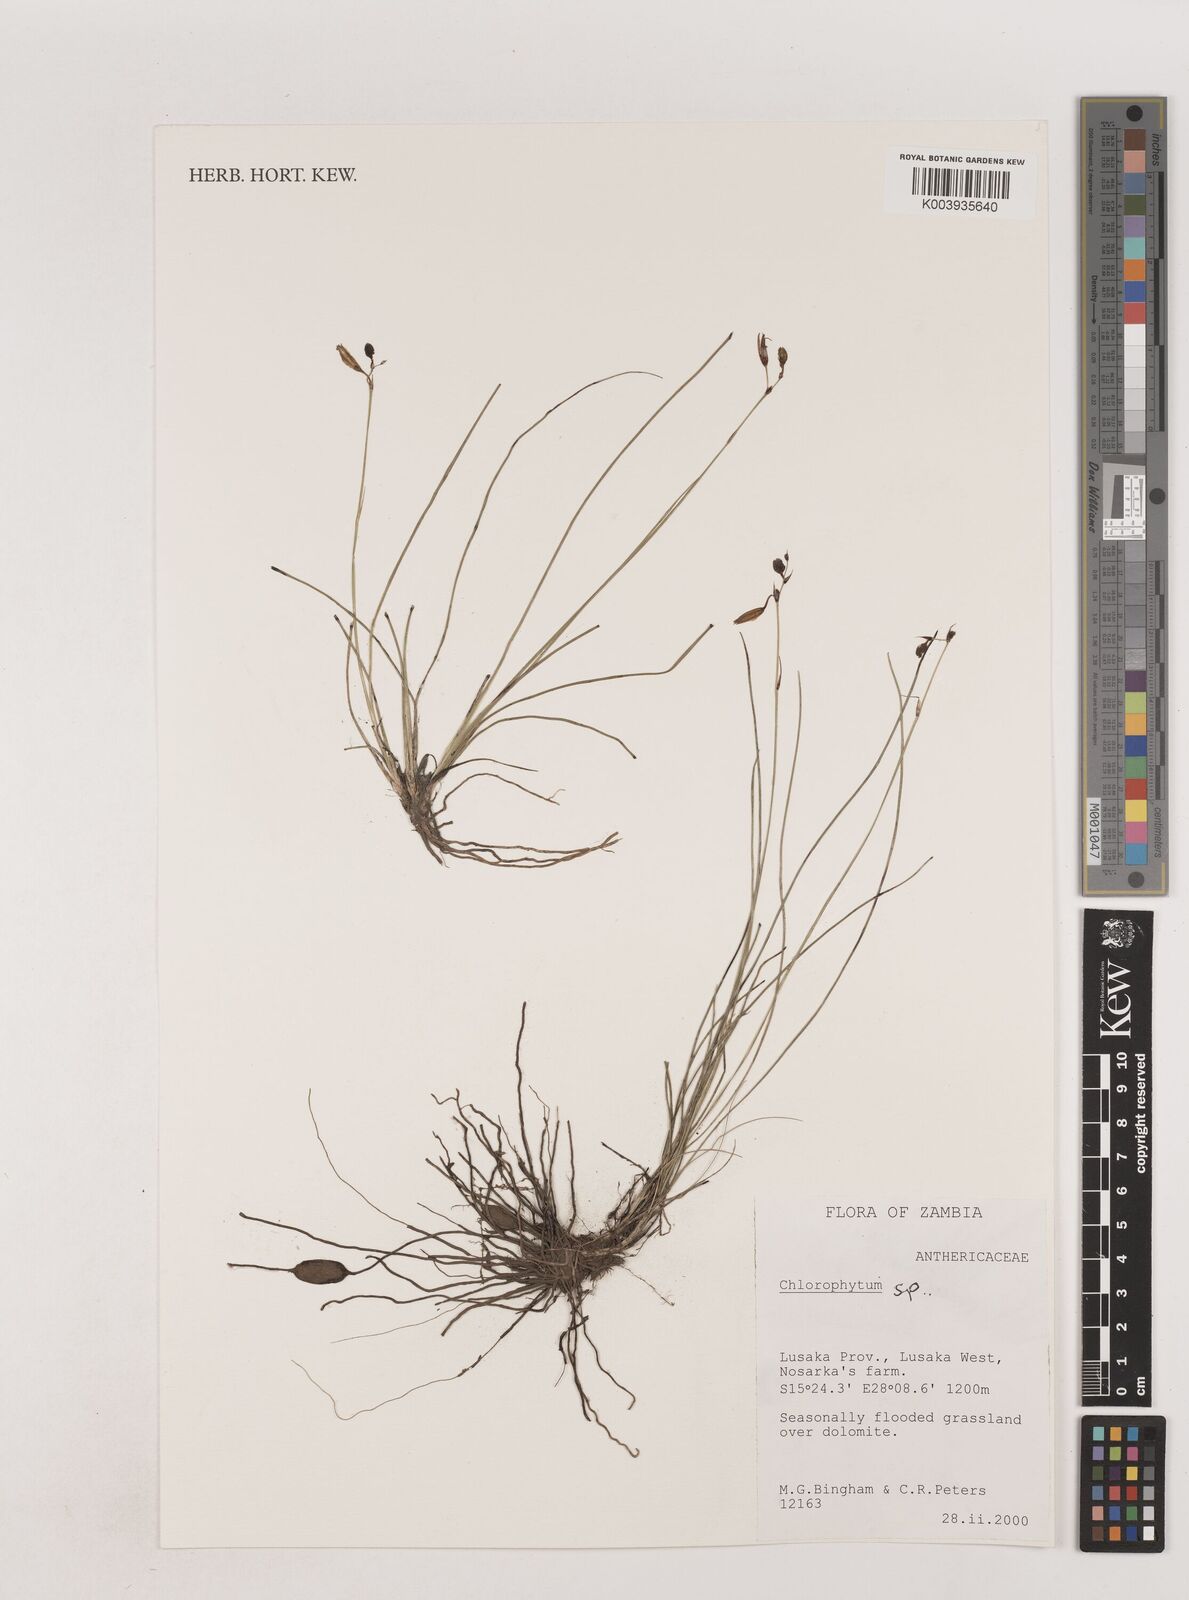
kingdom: Plantae
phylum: Tracheophyta
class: Liliopsida
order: Asparagales
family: Asparagaceae
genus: Chlorophytum
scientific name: Chlorophytum sphagnicola
